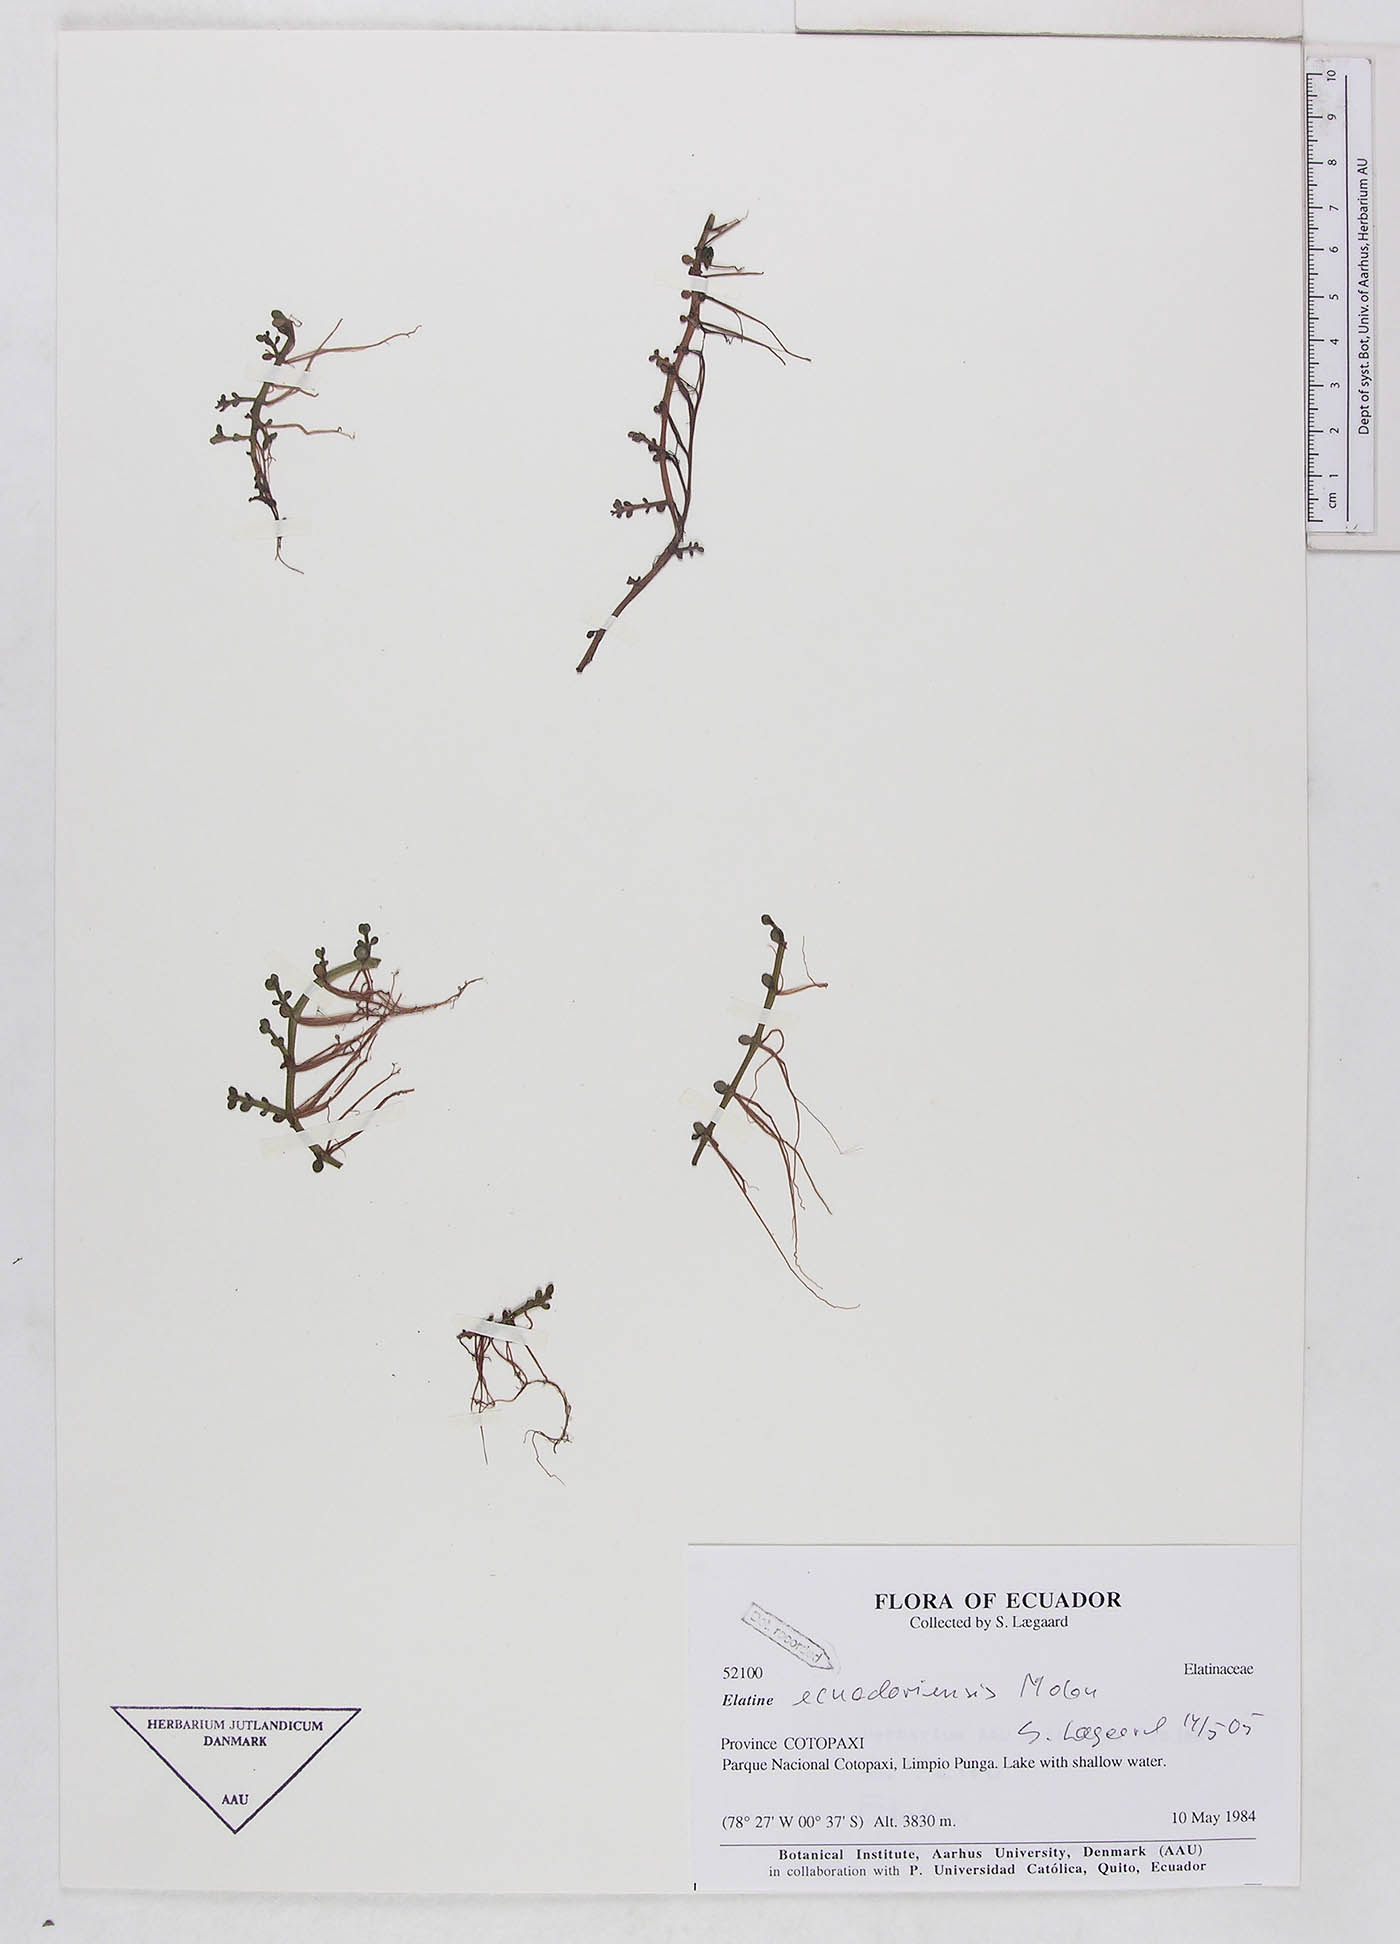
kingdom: Plantae
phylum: Tracheophyta
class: Magnoliopsida
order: Malpighiales
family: Elatinaceae
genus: Elatine
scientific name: Elatine ecuadoriensis
